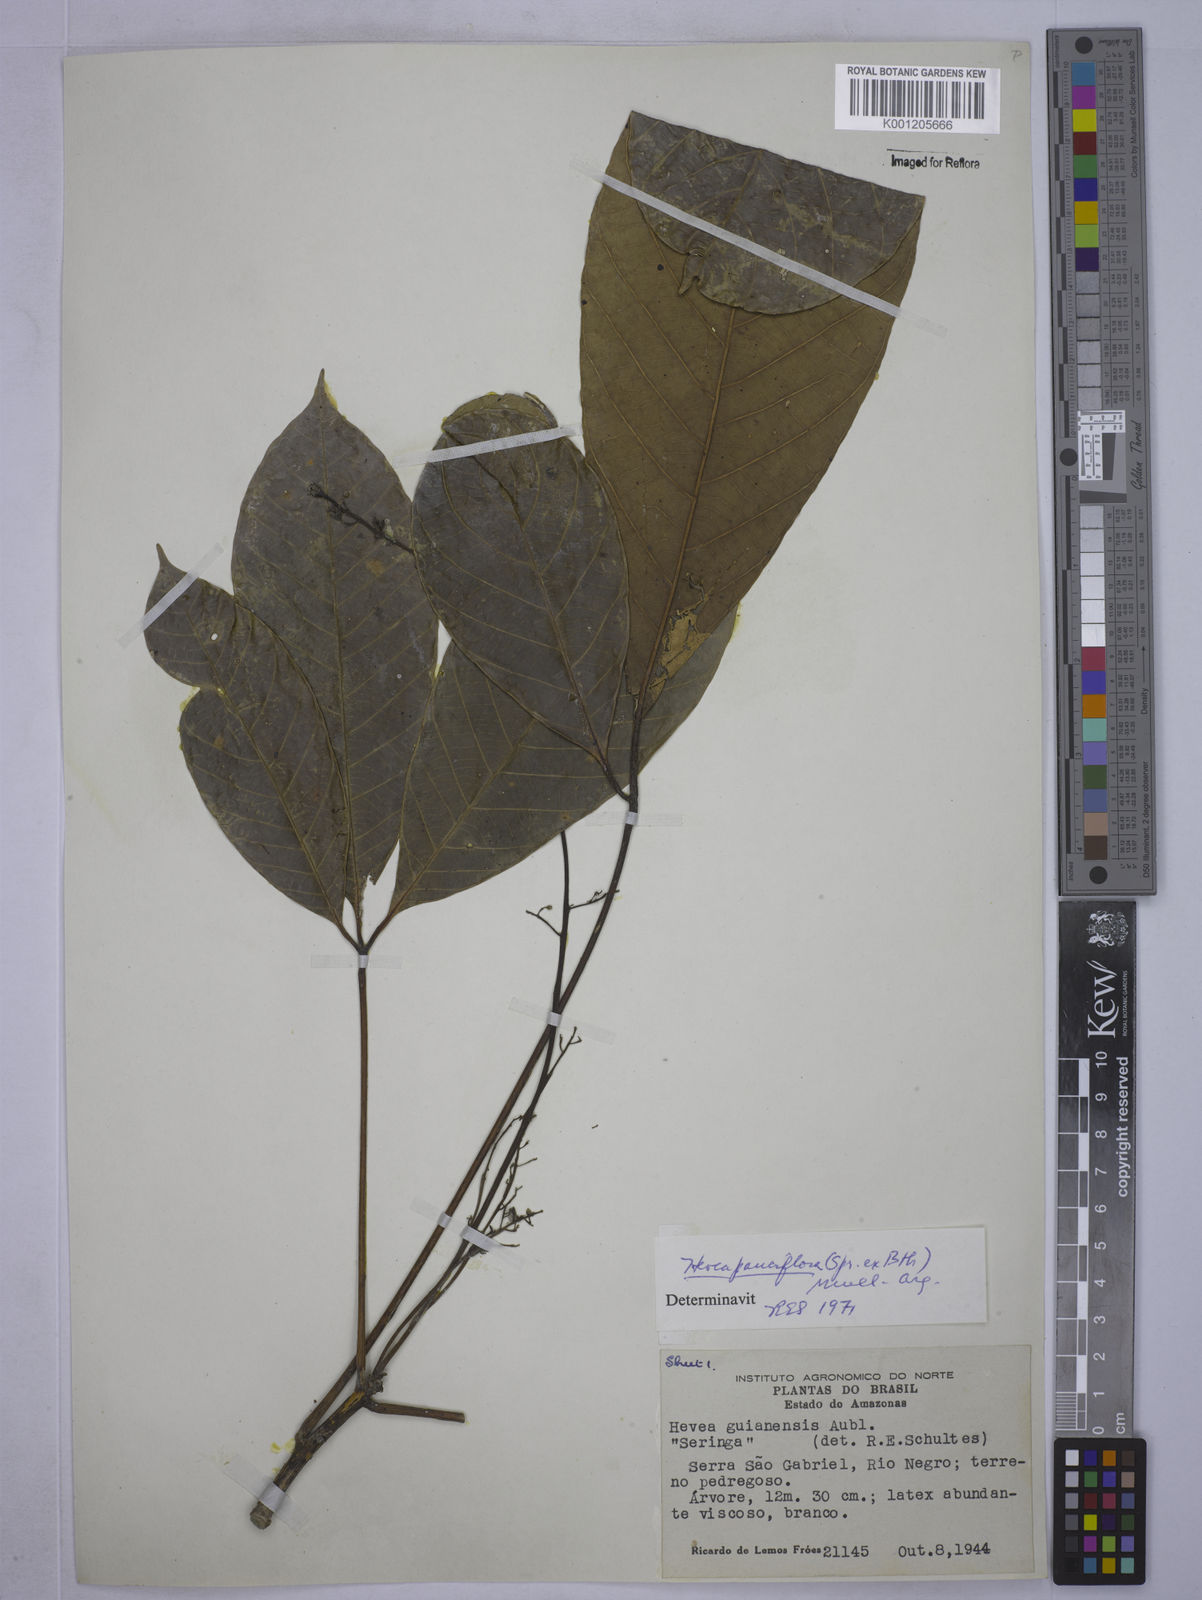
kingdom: Plantae
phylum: Tracheophyta
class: Magnoliopsida
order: Malpighiales
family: Euphorbiaceae
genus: Hevea
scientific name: Hevea pauciflora
